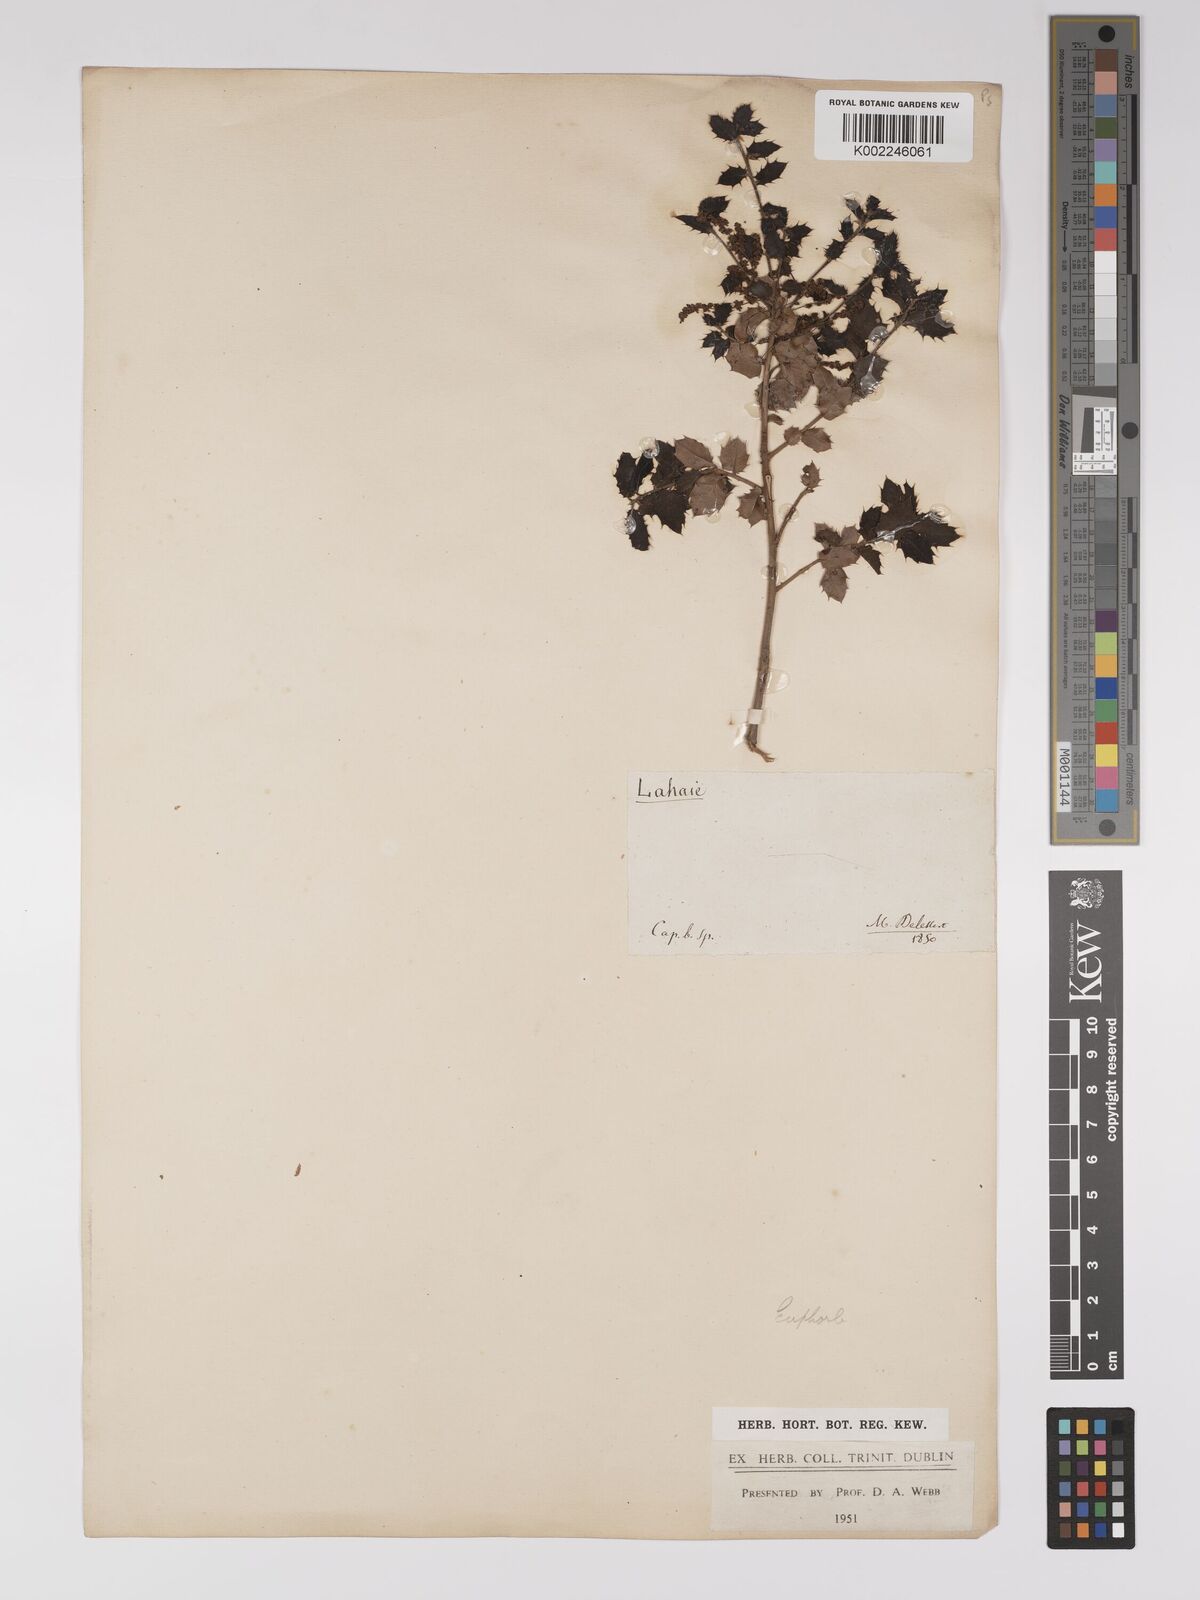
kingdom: Plantae
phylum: Tracheophyta
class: Magnoliopsida
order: Malpighiales
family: Euphorbiaceae
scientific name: Euphorbiaceae
